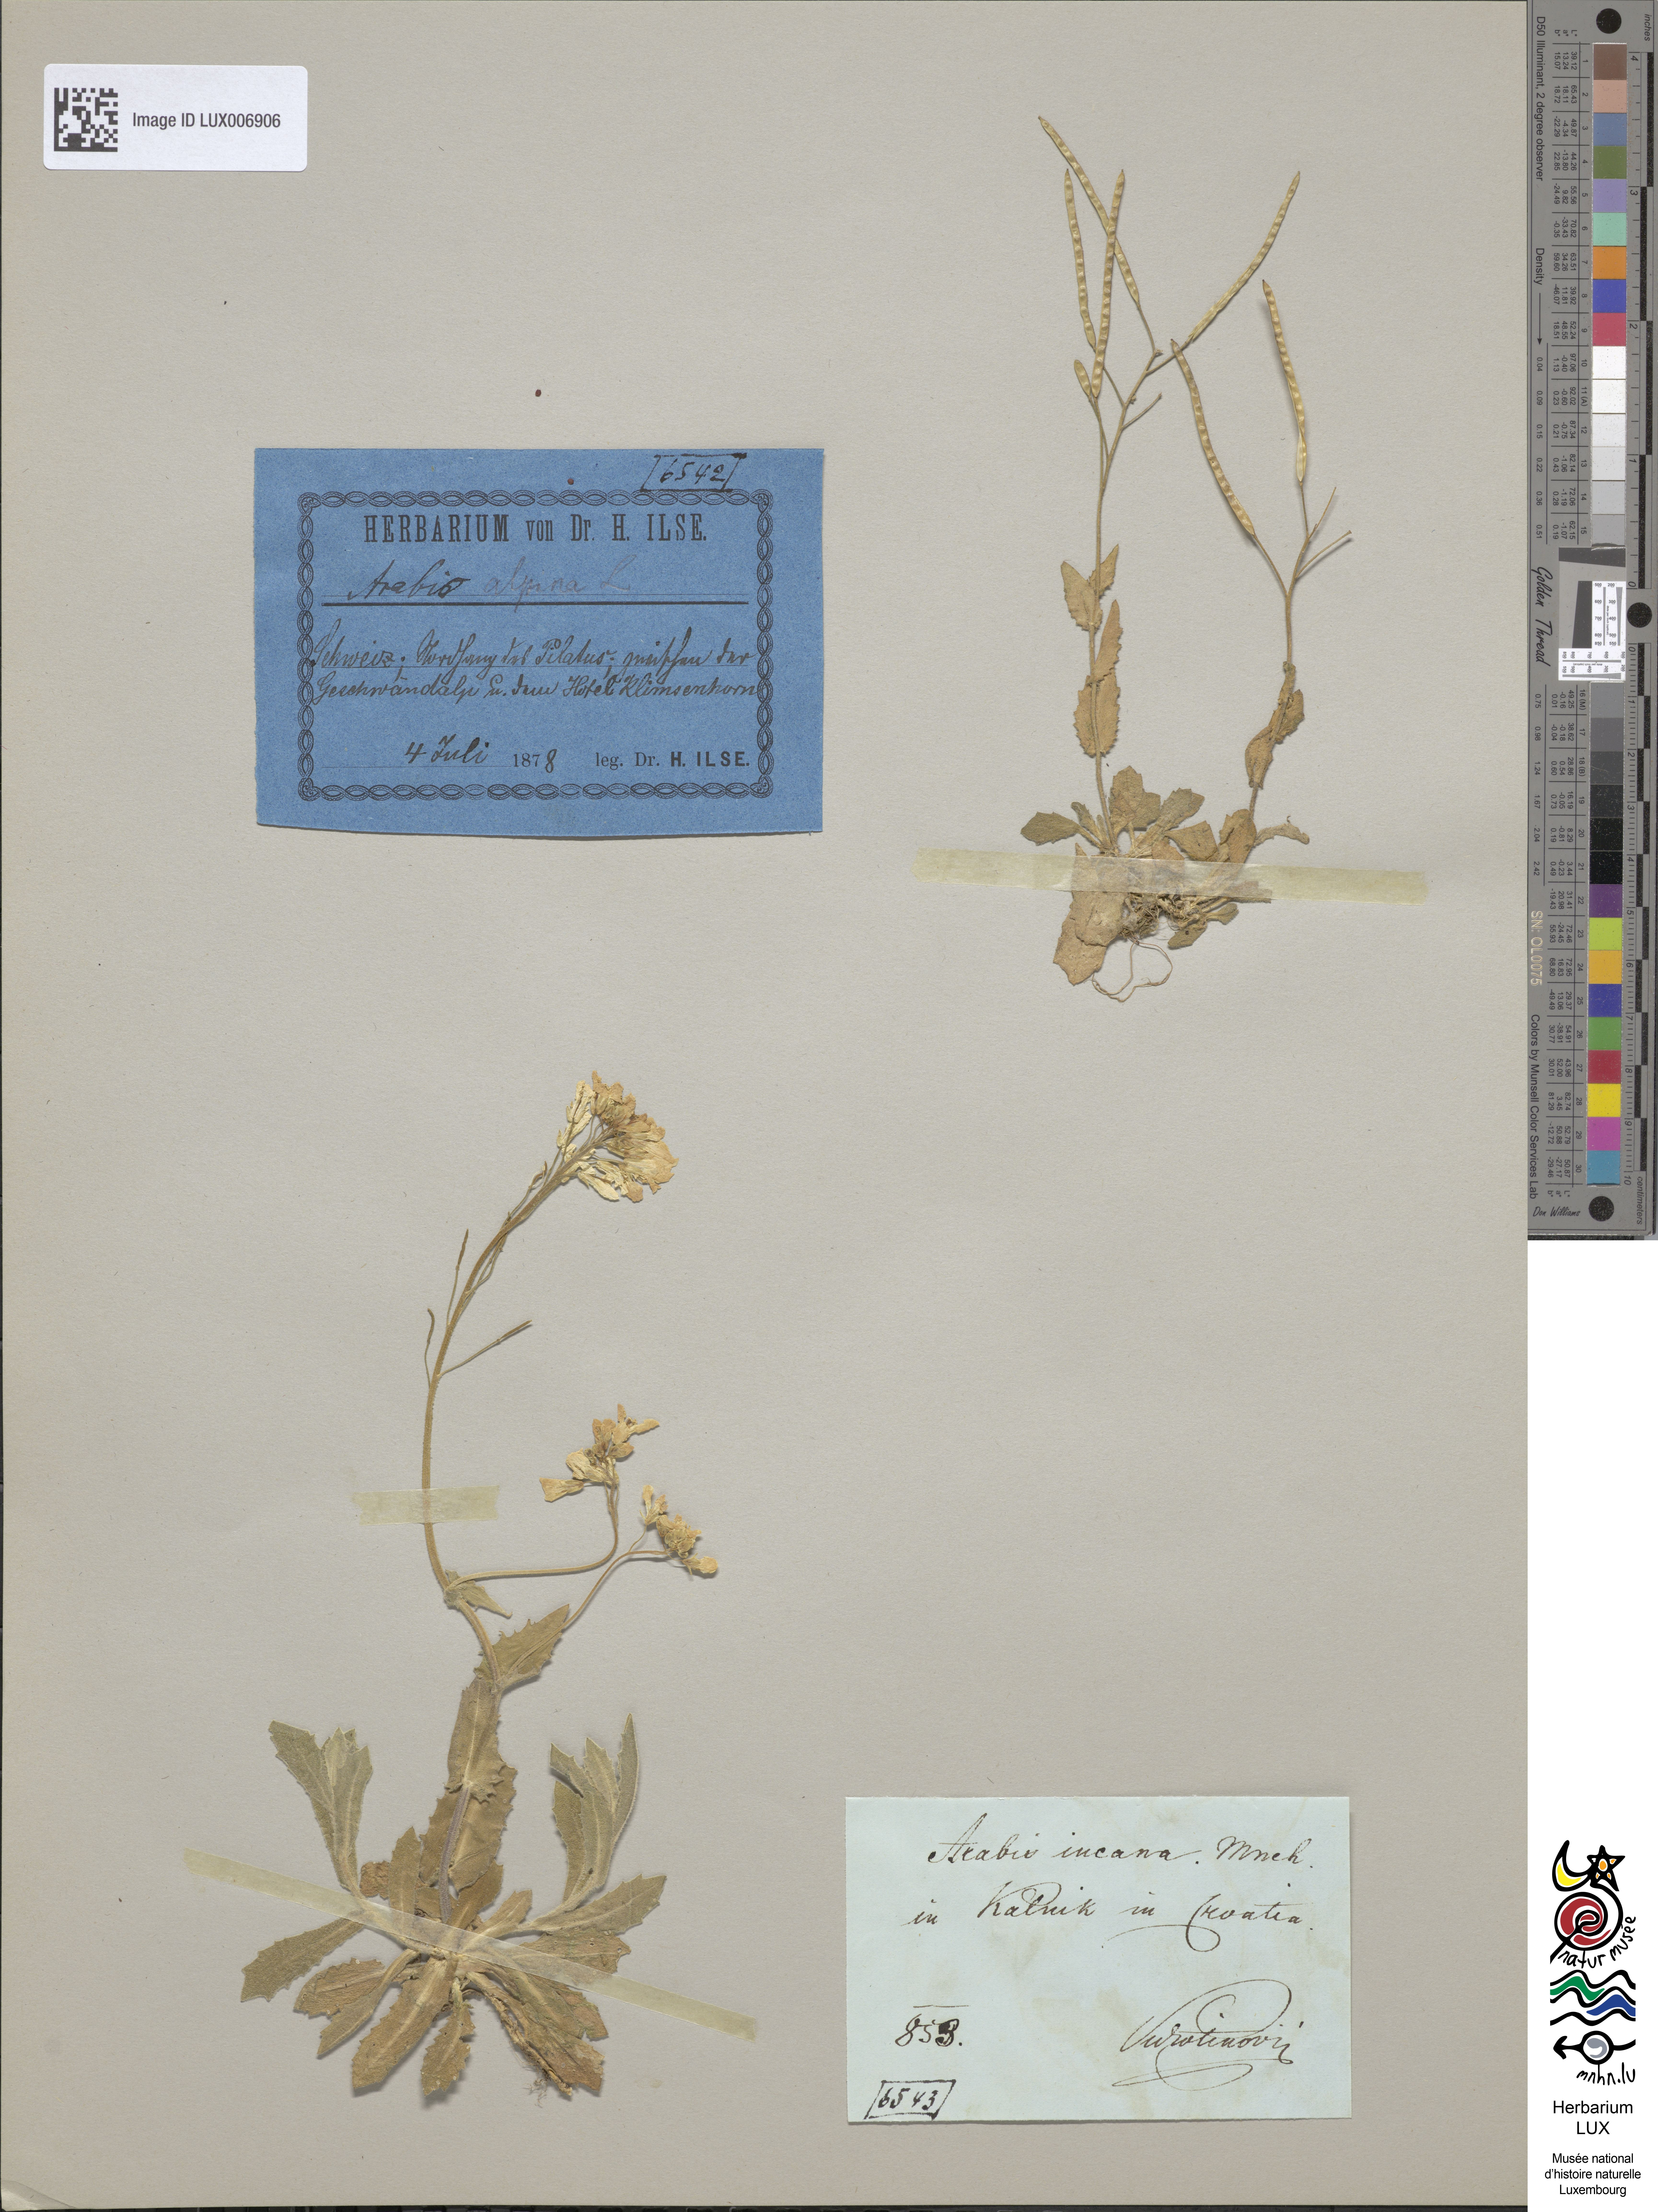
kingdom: Plantae
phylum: Tracheophyta
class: Magnoliopsida
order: Brassicales
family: Brassicaceae
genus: Arabis
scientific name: Arabis alpina
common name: Alpine rock-cress
